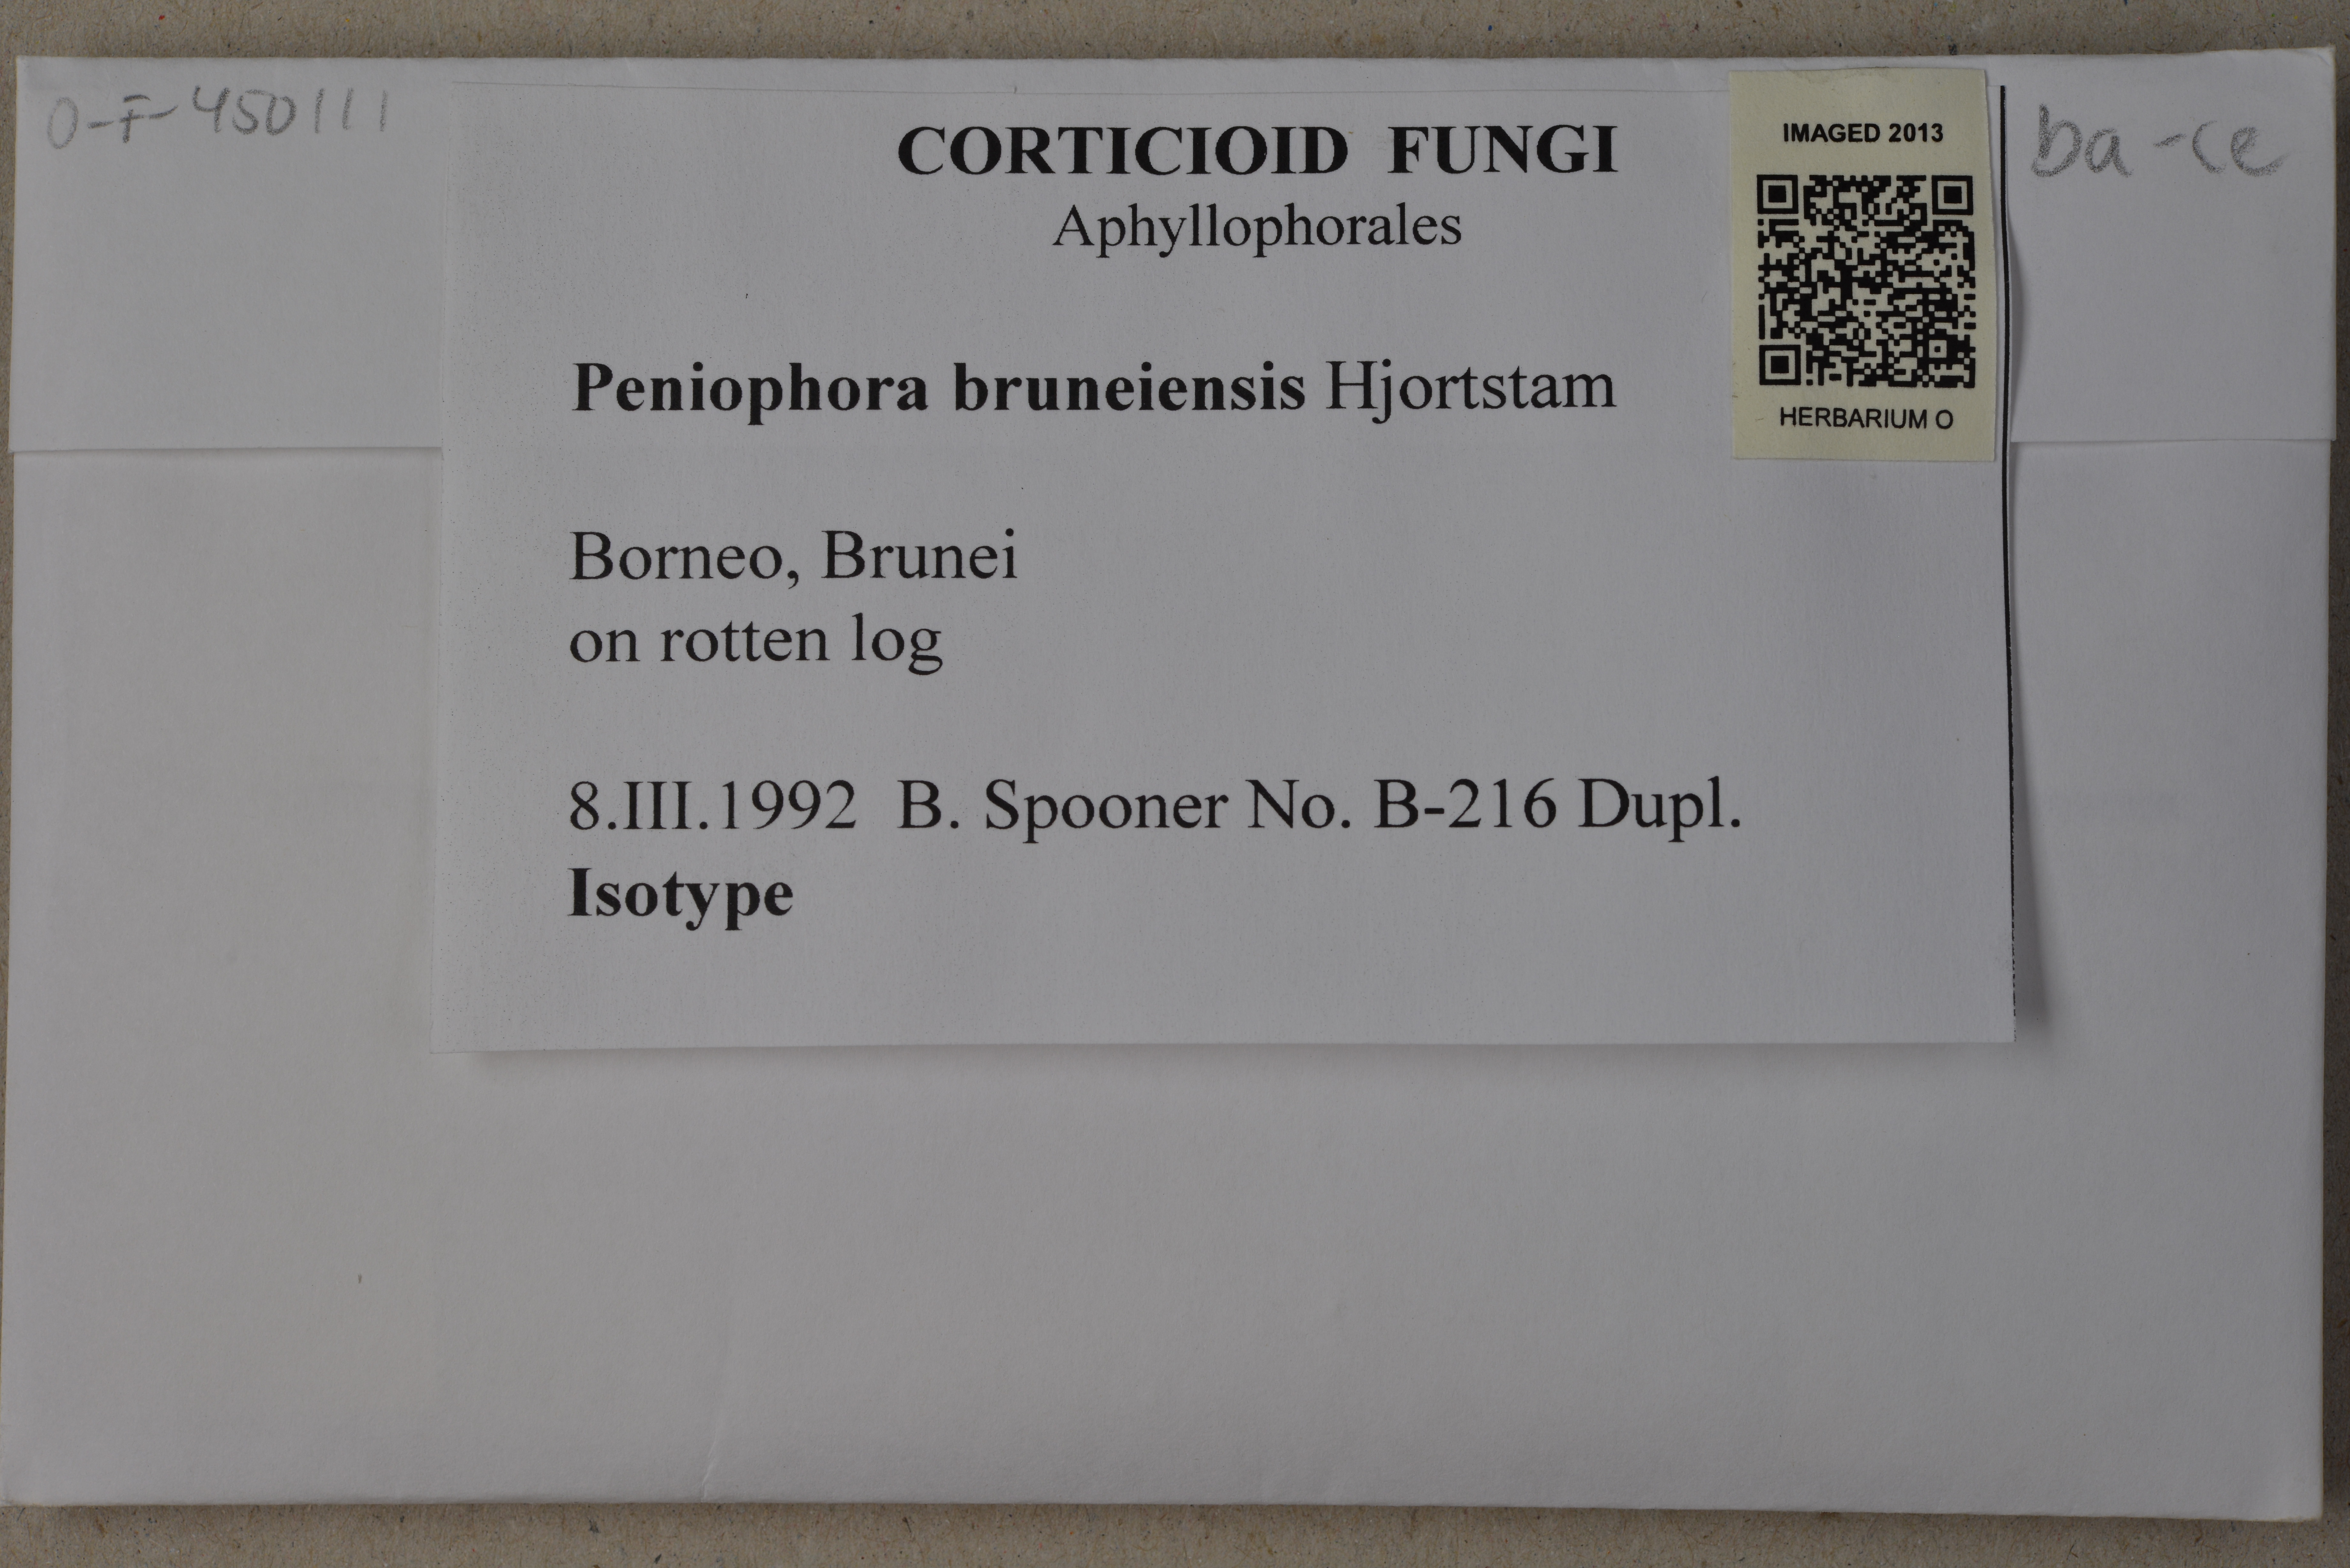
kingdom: Fungi
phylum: Basidiomycota
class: Agaricomycetes
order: Russulales
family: Peniophoraceae
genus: Peniophora
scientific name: Peniophora bruneiensis
